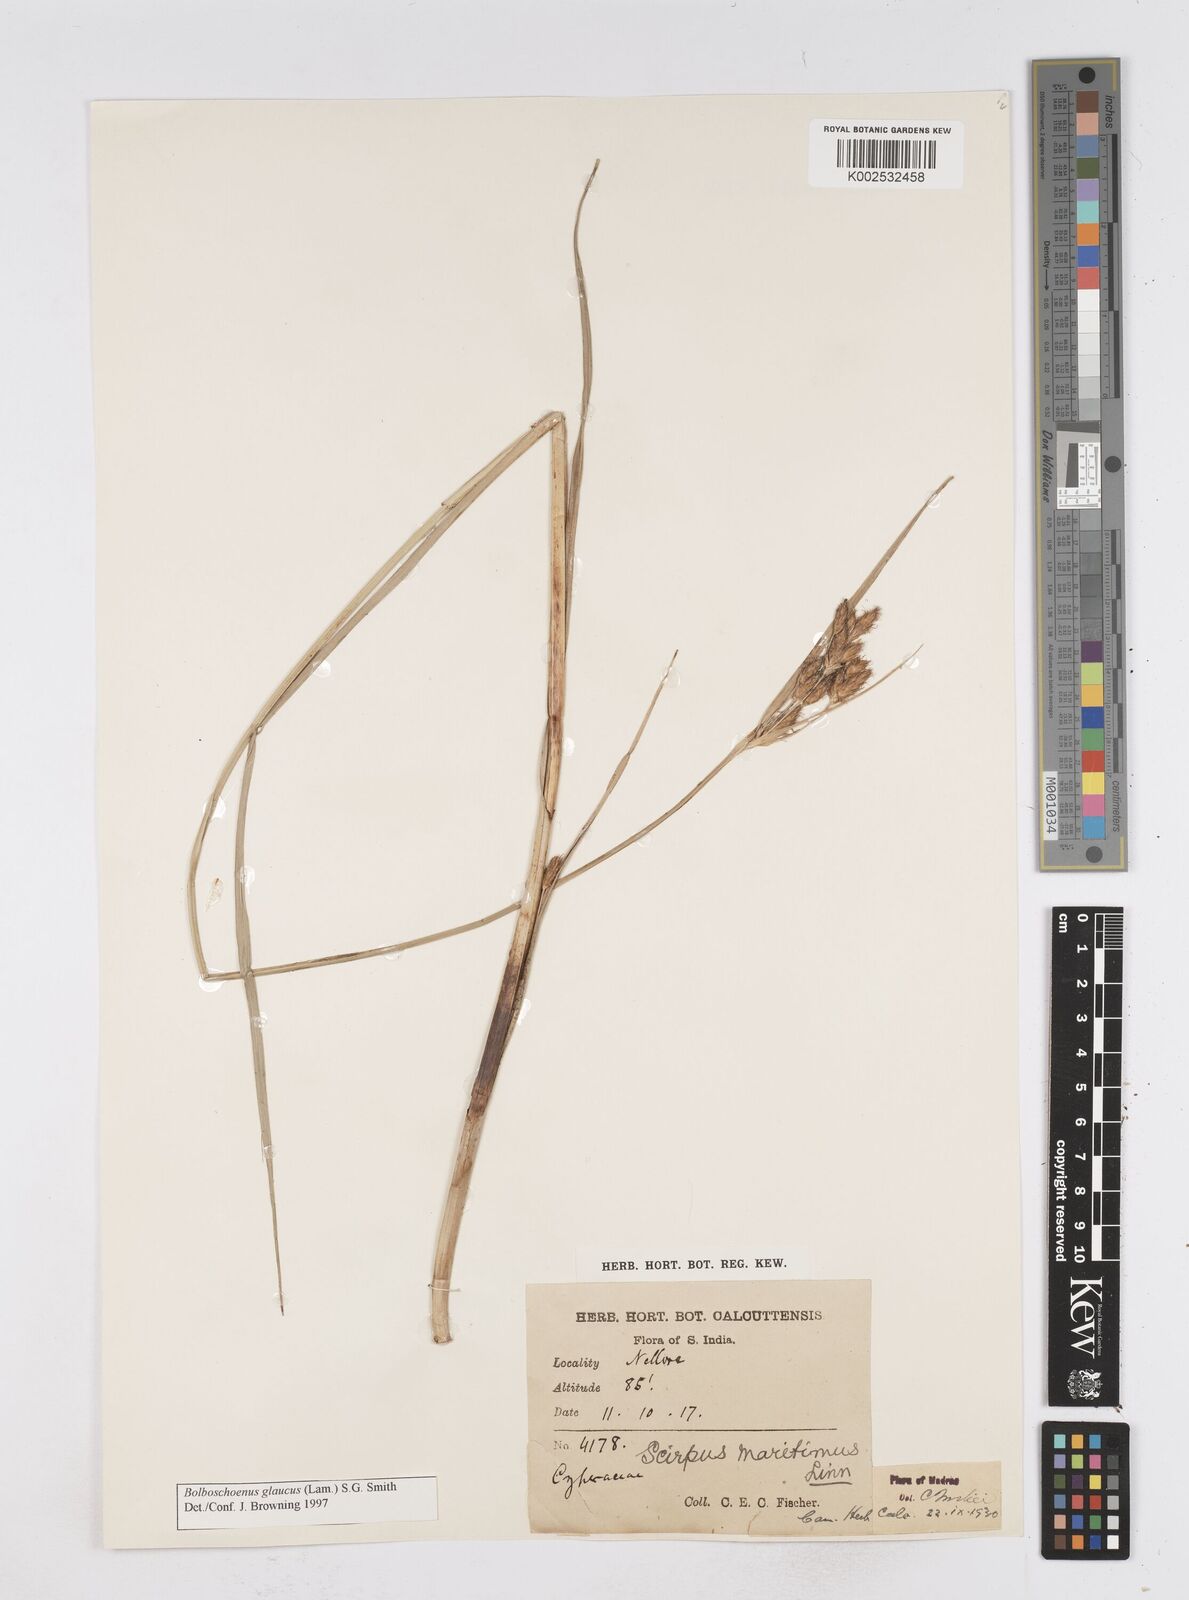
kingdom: Plantae
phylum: Tracheophyta
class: Liliopsida
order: Poales
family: Cyperaceae
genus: Bolboschoenus
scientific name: Bolboschoenus maritimus
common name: Sea club-rush
